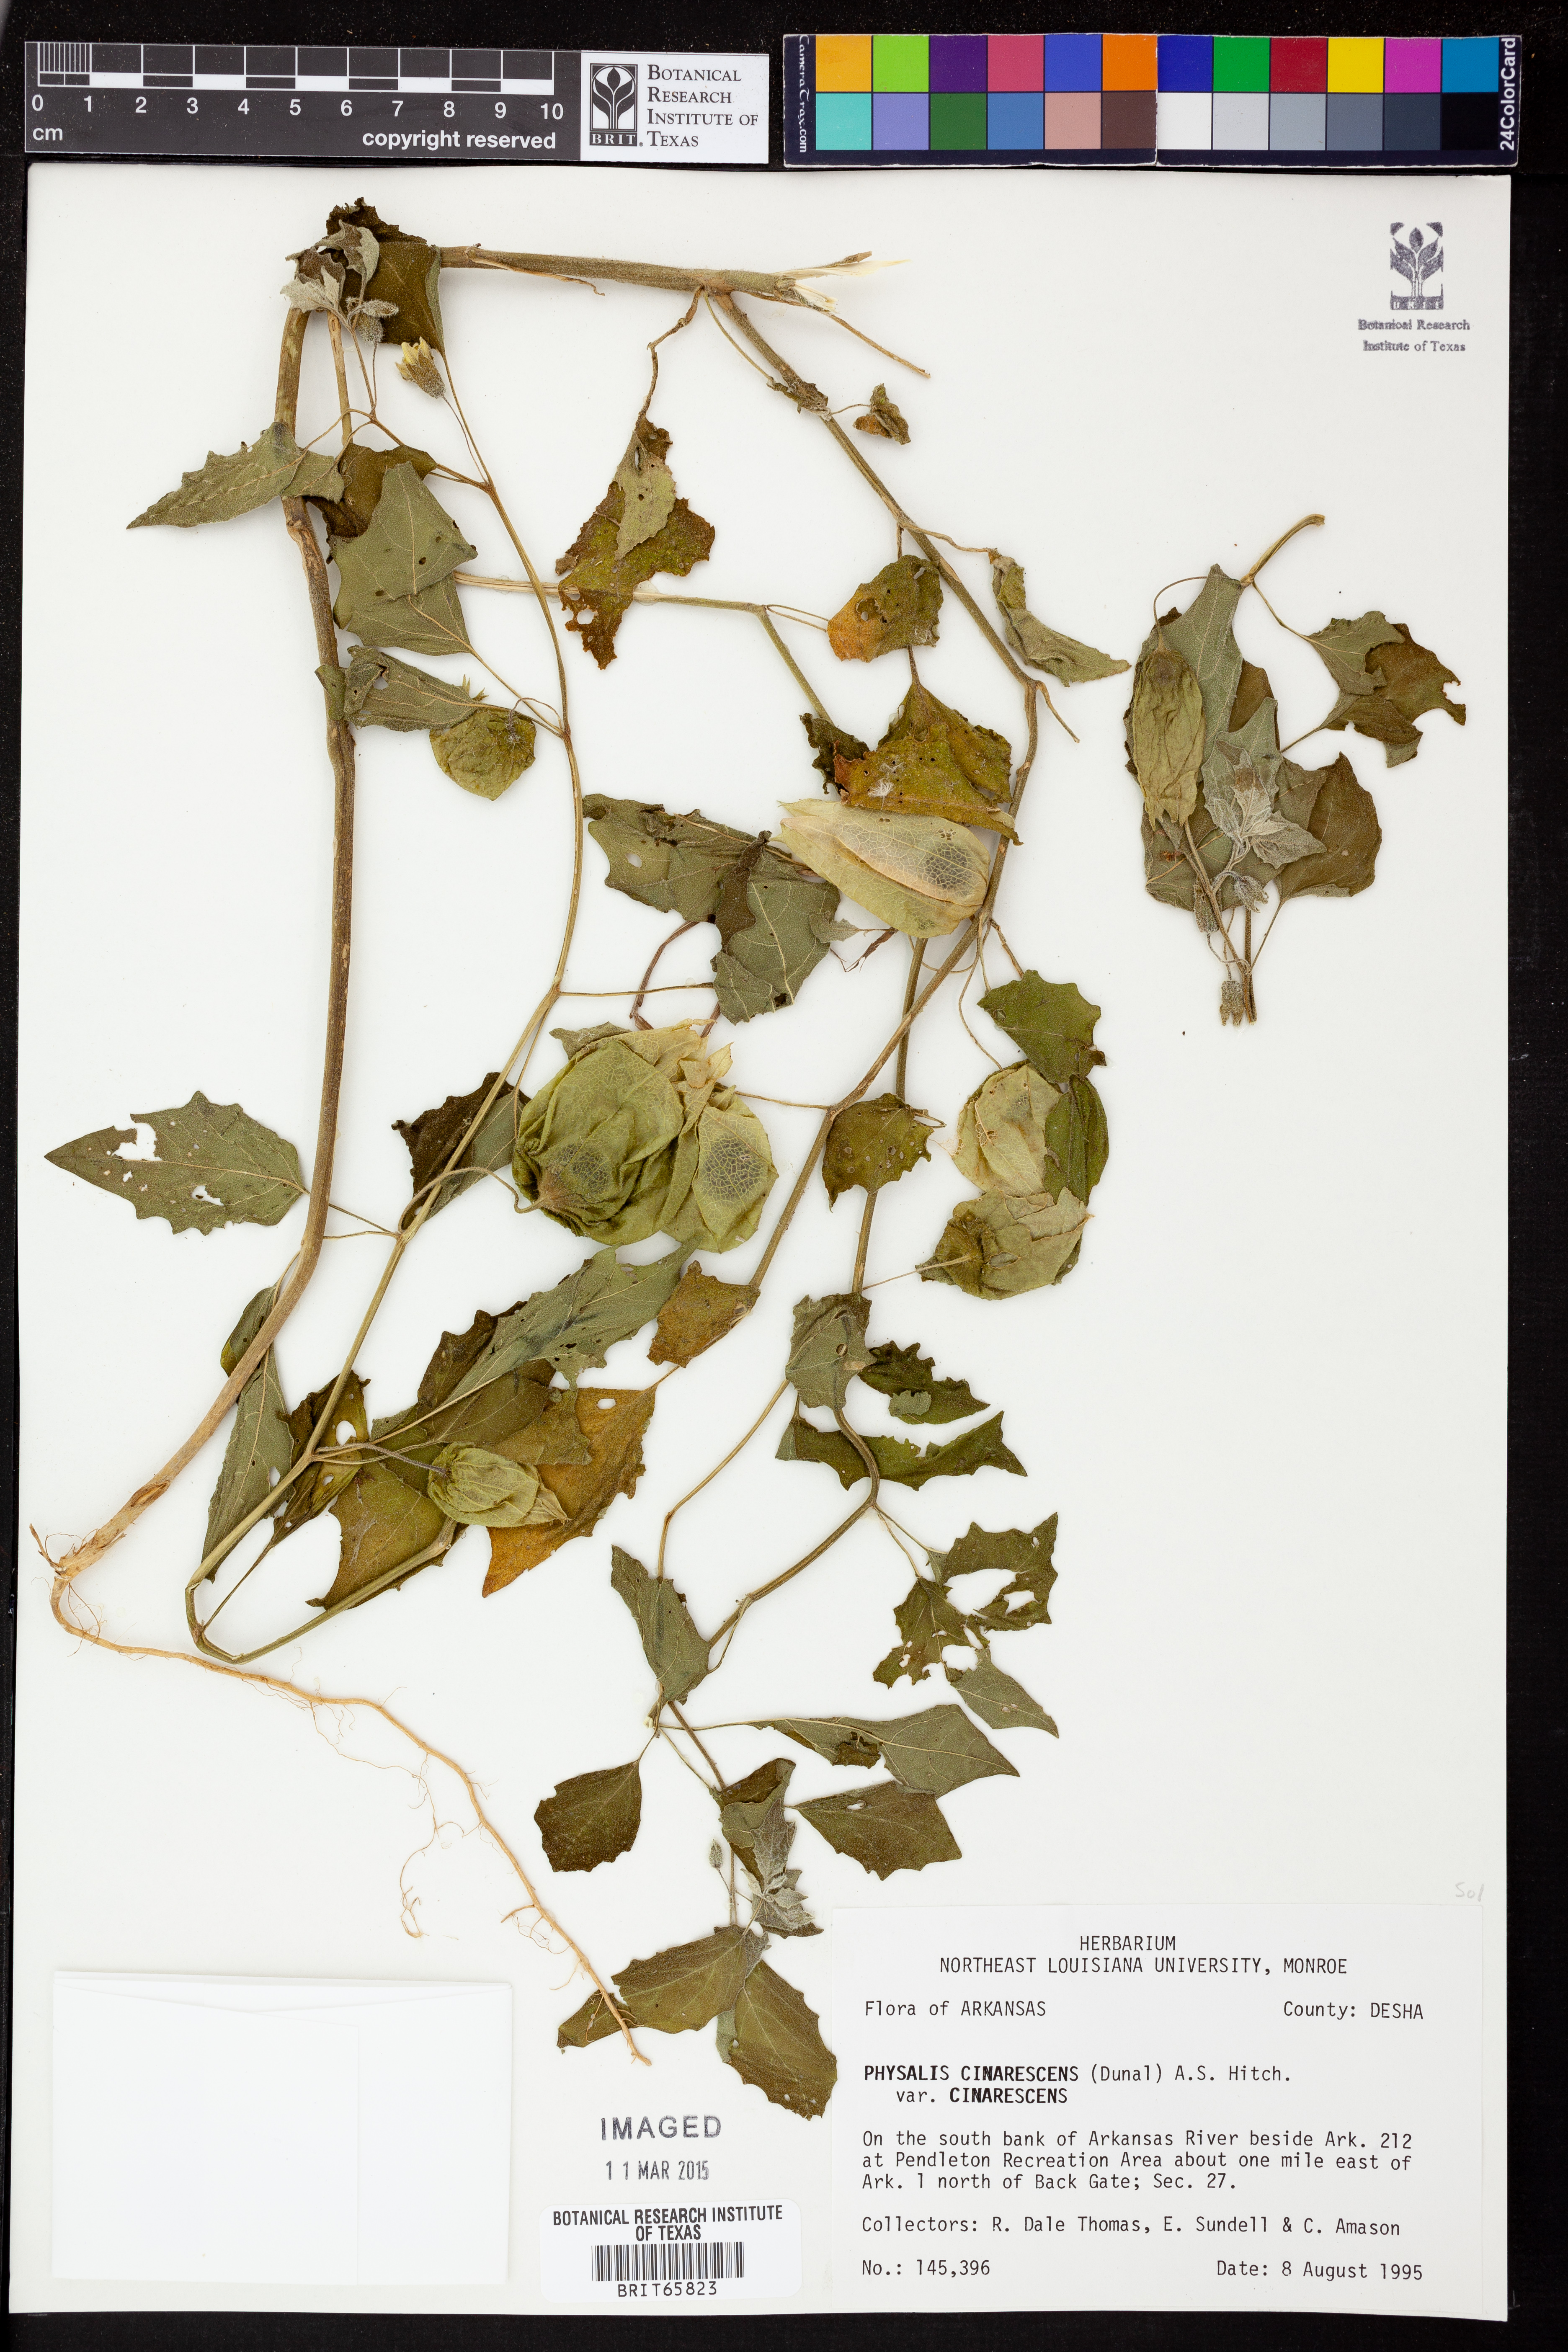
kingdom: Plantae
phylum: Tracheophyta
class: Magnoliopsida
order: Solanales
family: Solanaceae
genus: Physalis
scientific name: Physalis cinerascens
